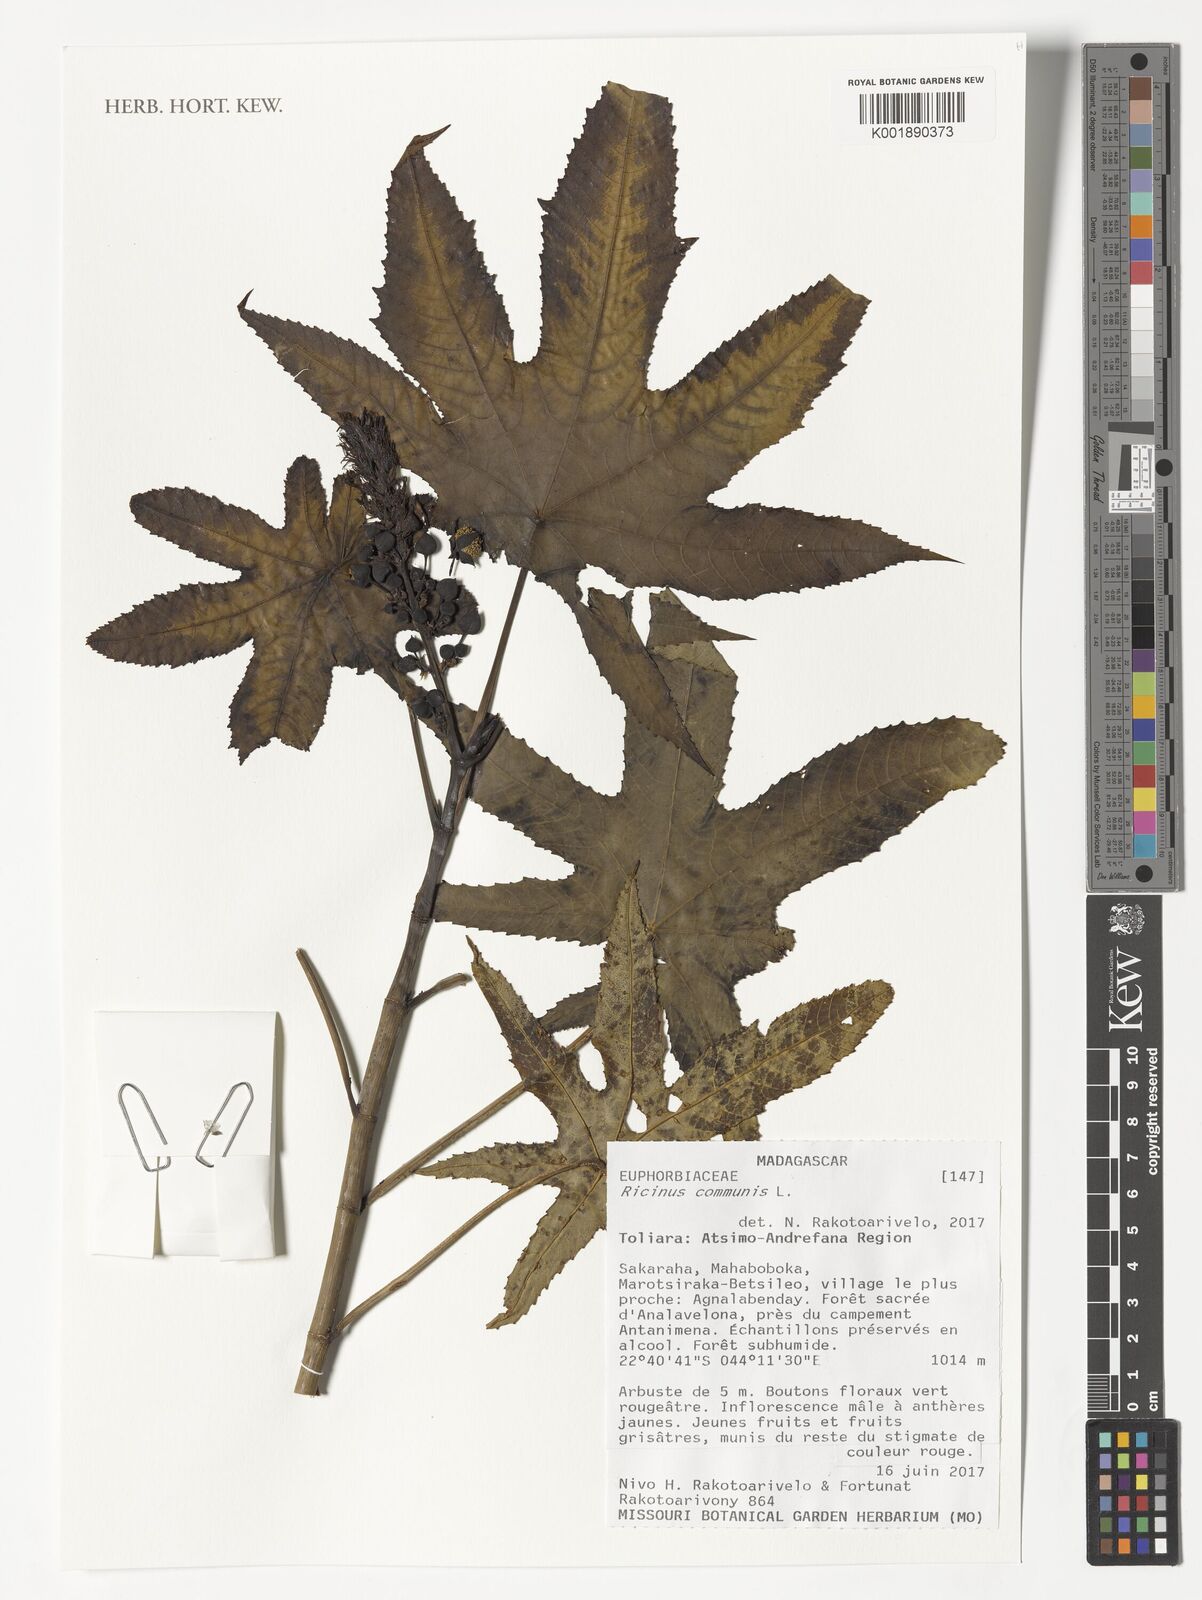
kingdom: Plantae
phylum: Tracheophyta
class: Magnoliopsida
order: Malpighiales
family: Euphorbiaceae
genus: Ricinus
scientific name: Ricinus communis
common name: Castor-oil-plant
